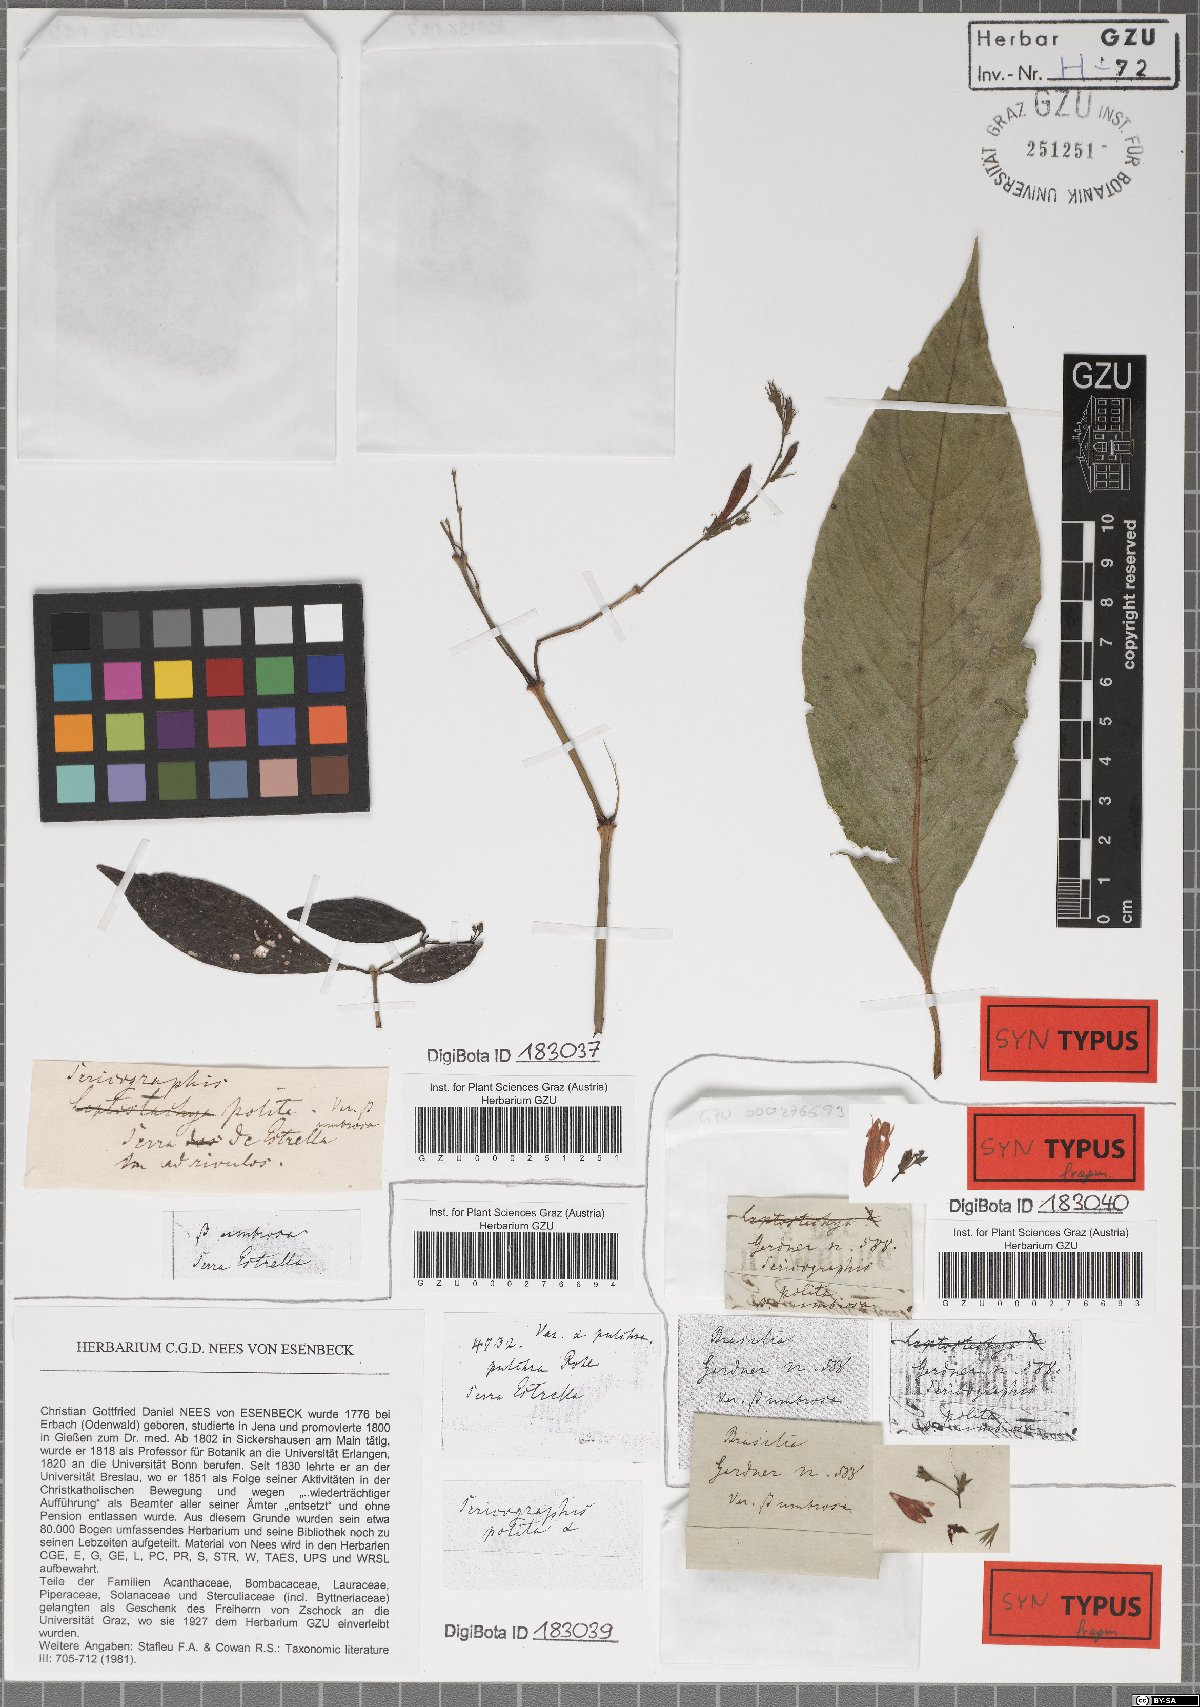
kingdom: Plantae
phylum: Tracheophyta
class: Magnoliopsida
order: Lamiales
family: Acanthaceae
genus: Justicia
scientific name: Justicia polita
